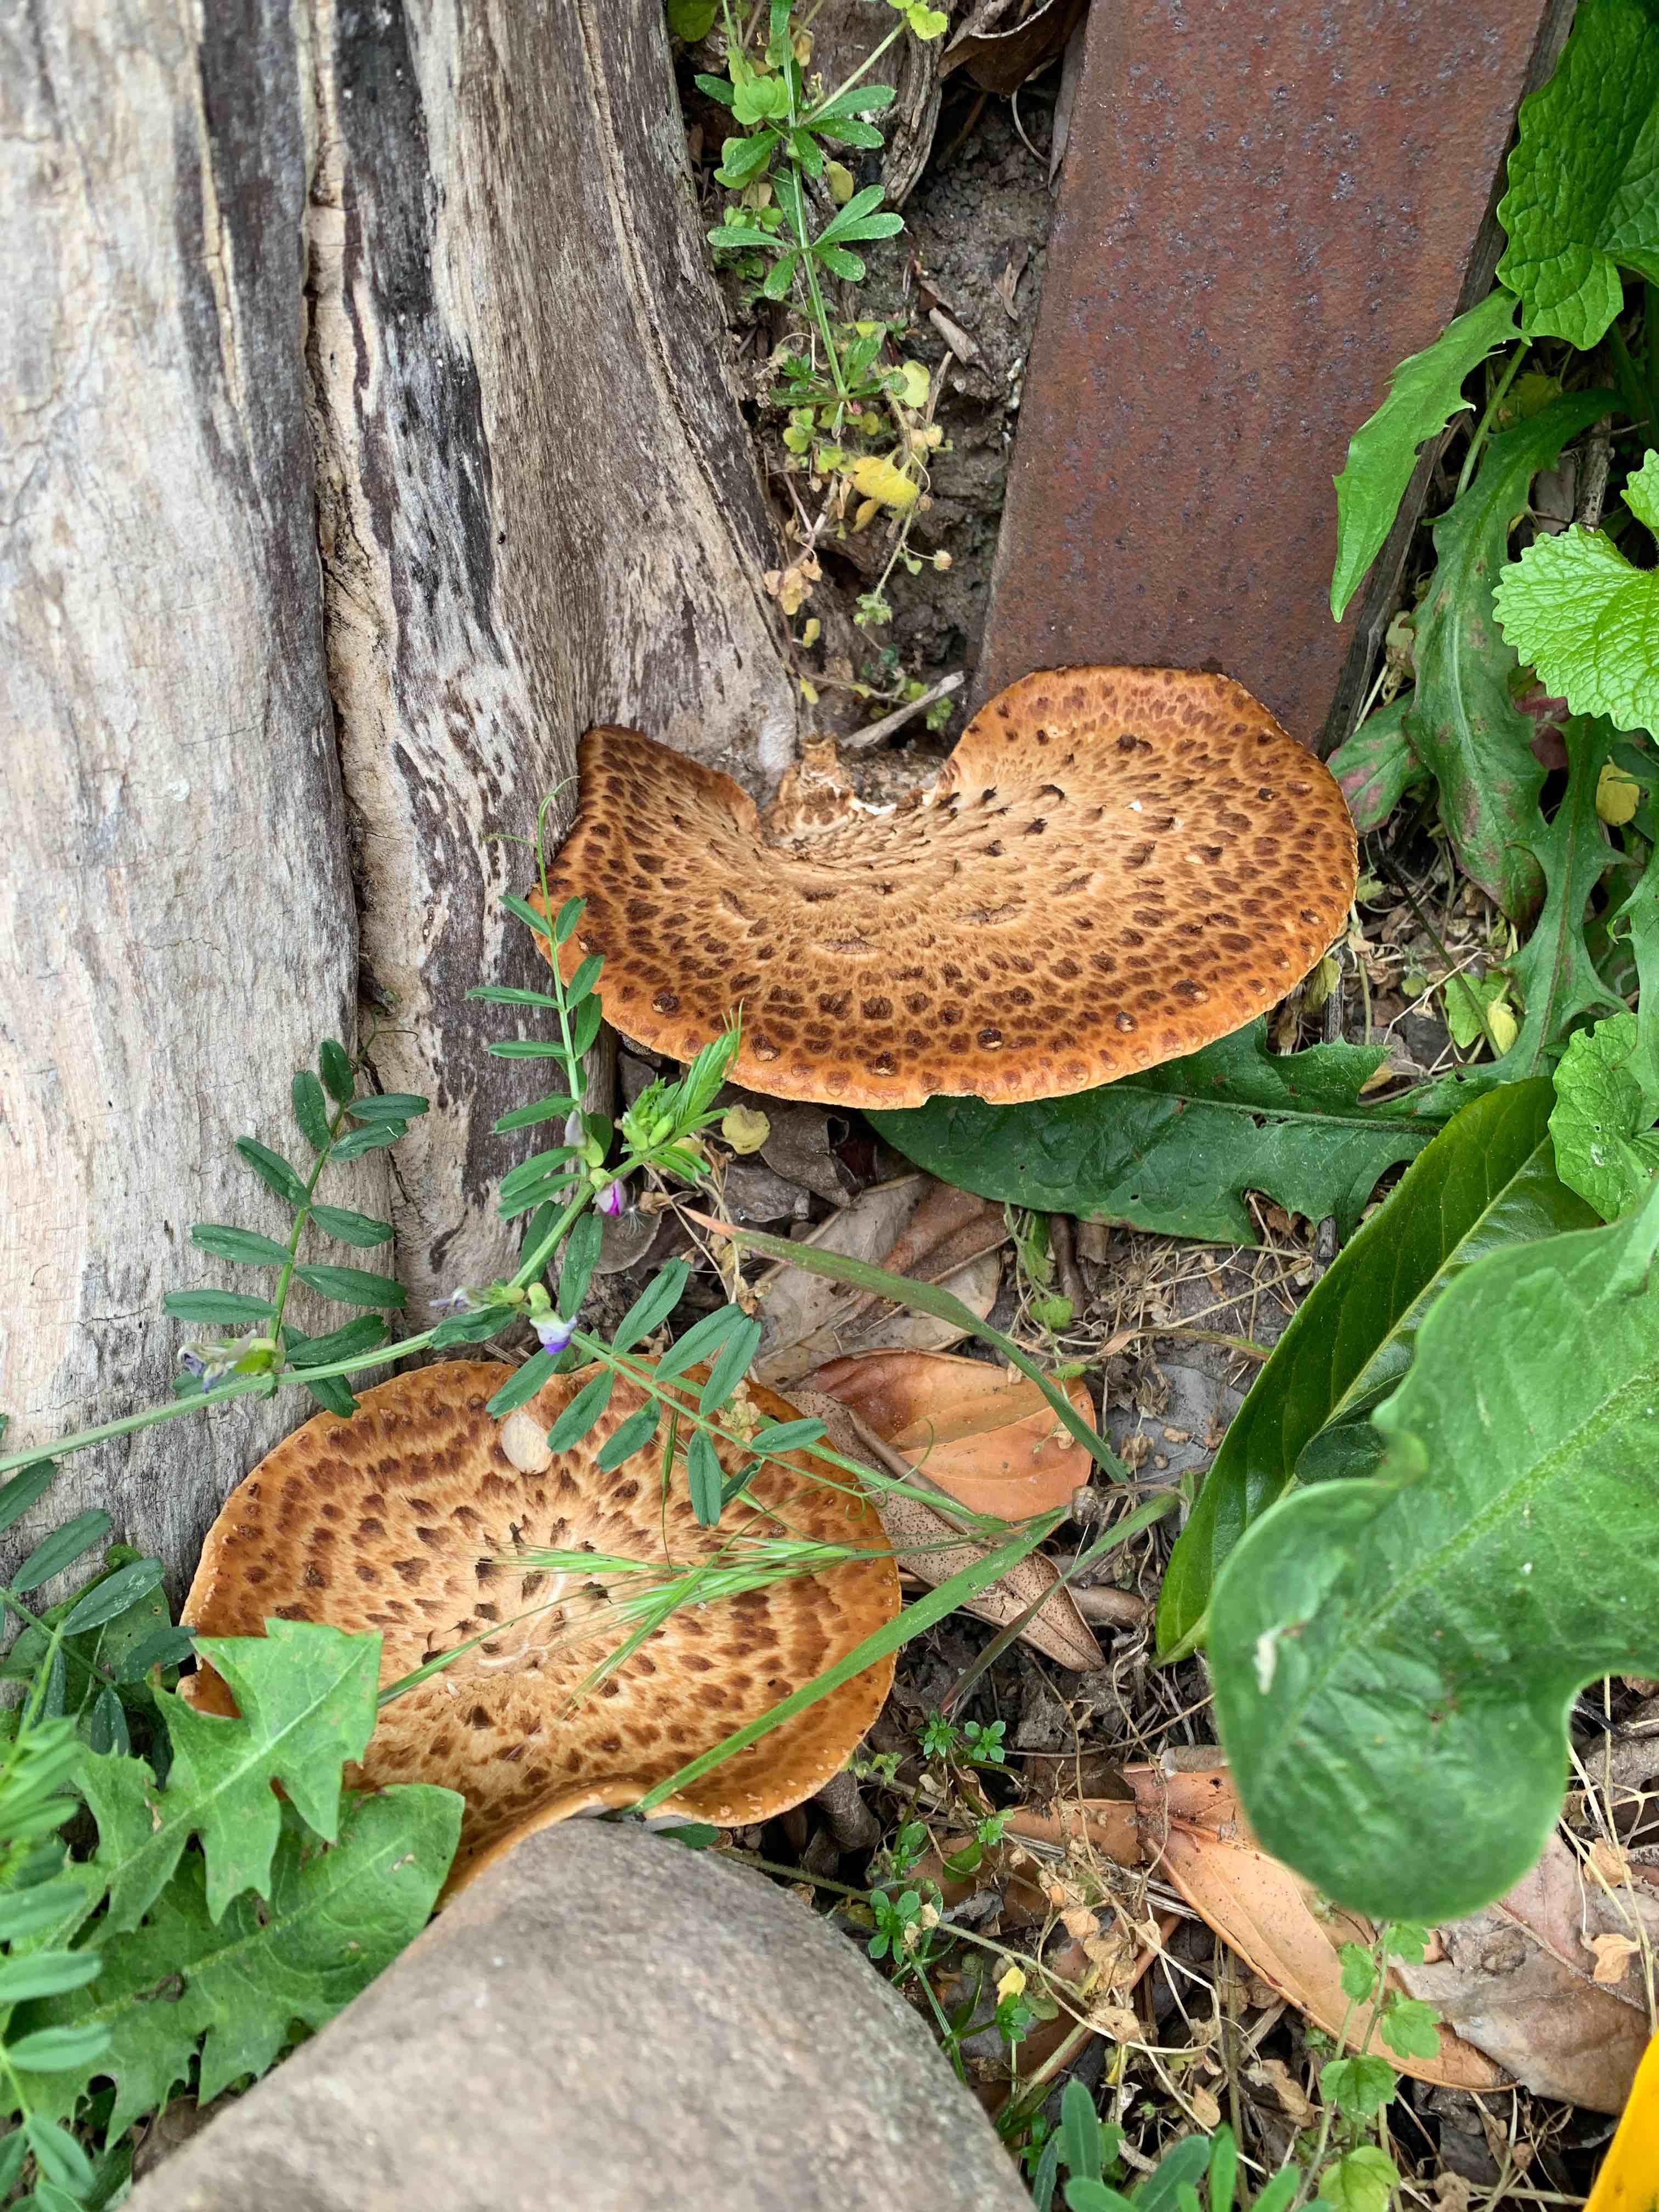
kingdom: Fungi
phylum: Basidiomycota
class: Agaricomycetes
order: Polyporales
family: Polyporaceae
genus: Cerioporus
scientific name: Cerioporus squamosus
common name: skællet stilkporesvamp
